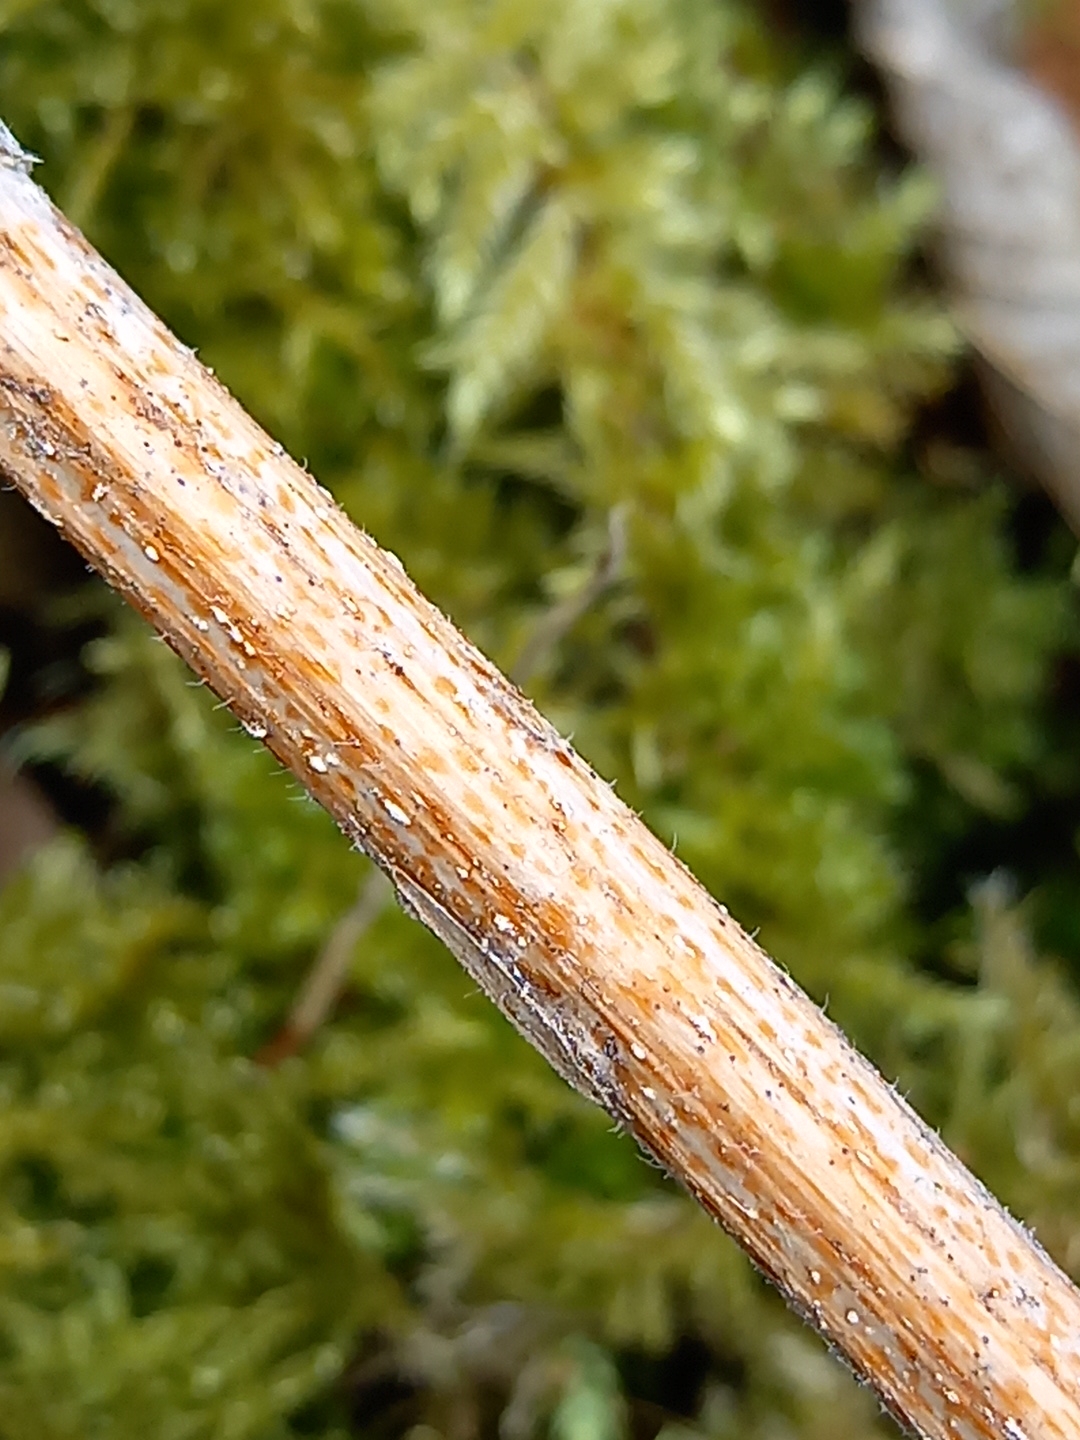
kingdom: Fungi
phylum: Ascomycota
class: Leotiomycetes
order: Helotiales
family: Calloriaceae
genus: Calloria
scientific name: Calloria urticae
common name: nælde-orangeskive
